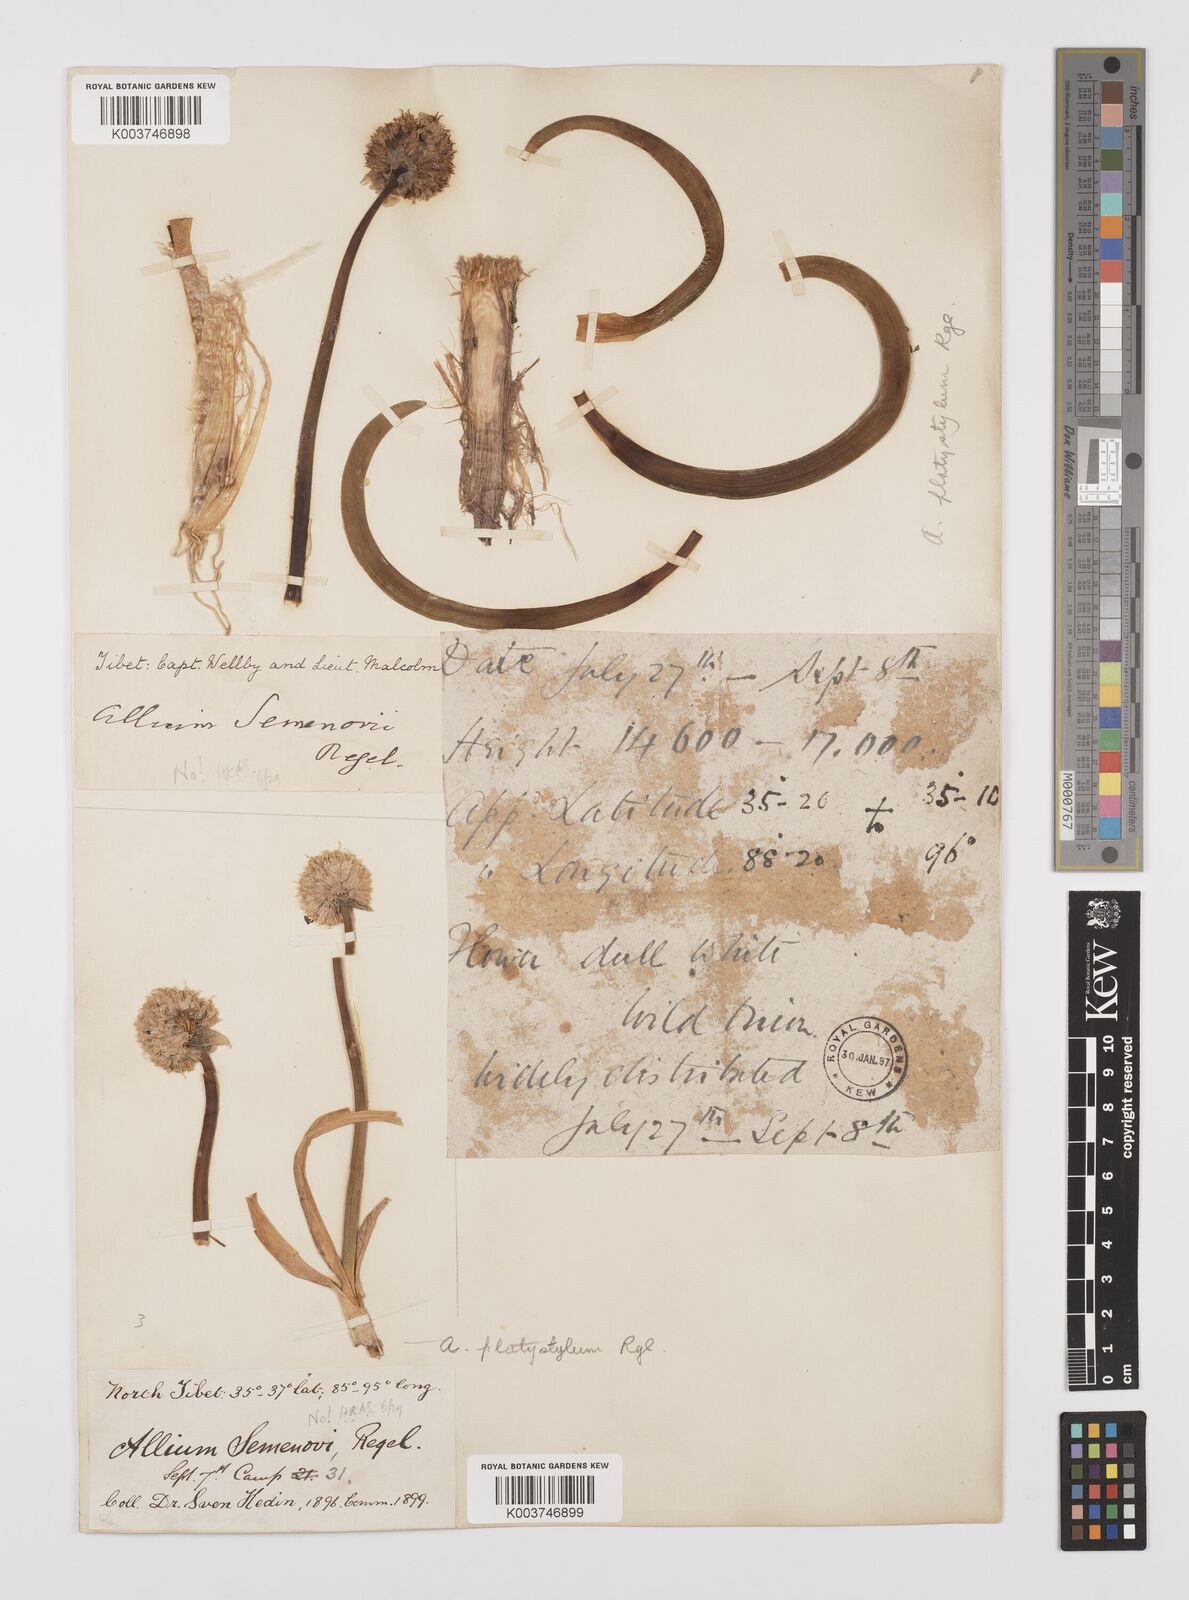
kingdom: Plantae
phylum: Tracheophyta
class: Liliopsida
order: Asparagales
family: Amaryllidaceae
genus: Allium
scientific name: Allium carolinianum
